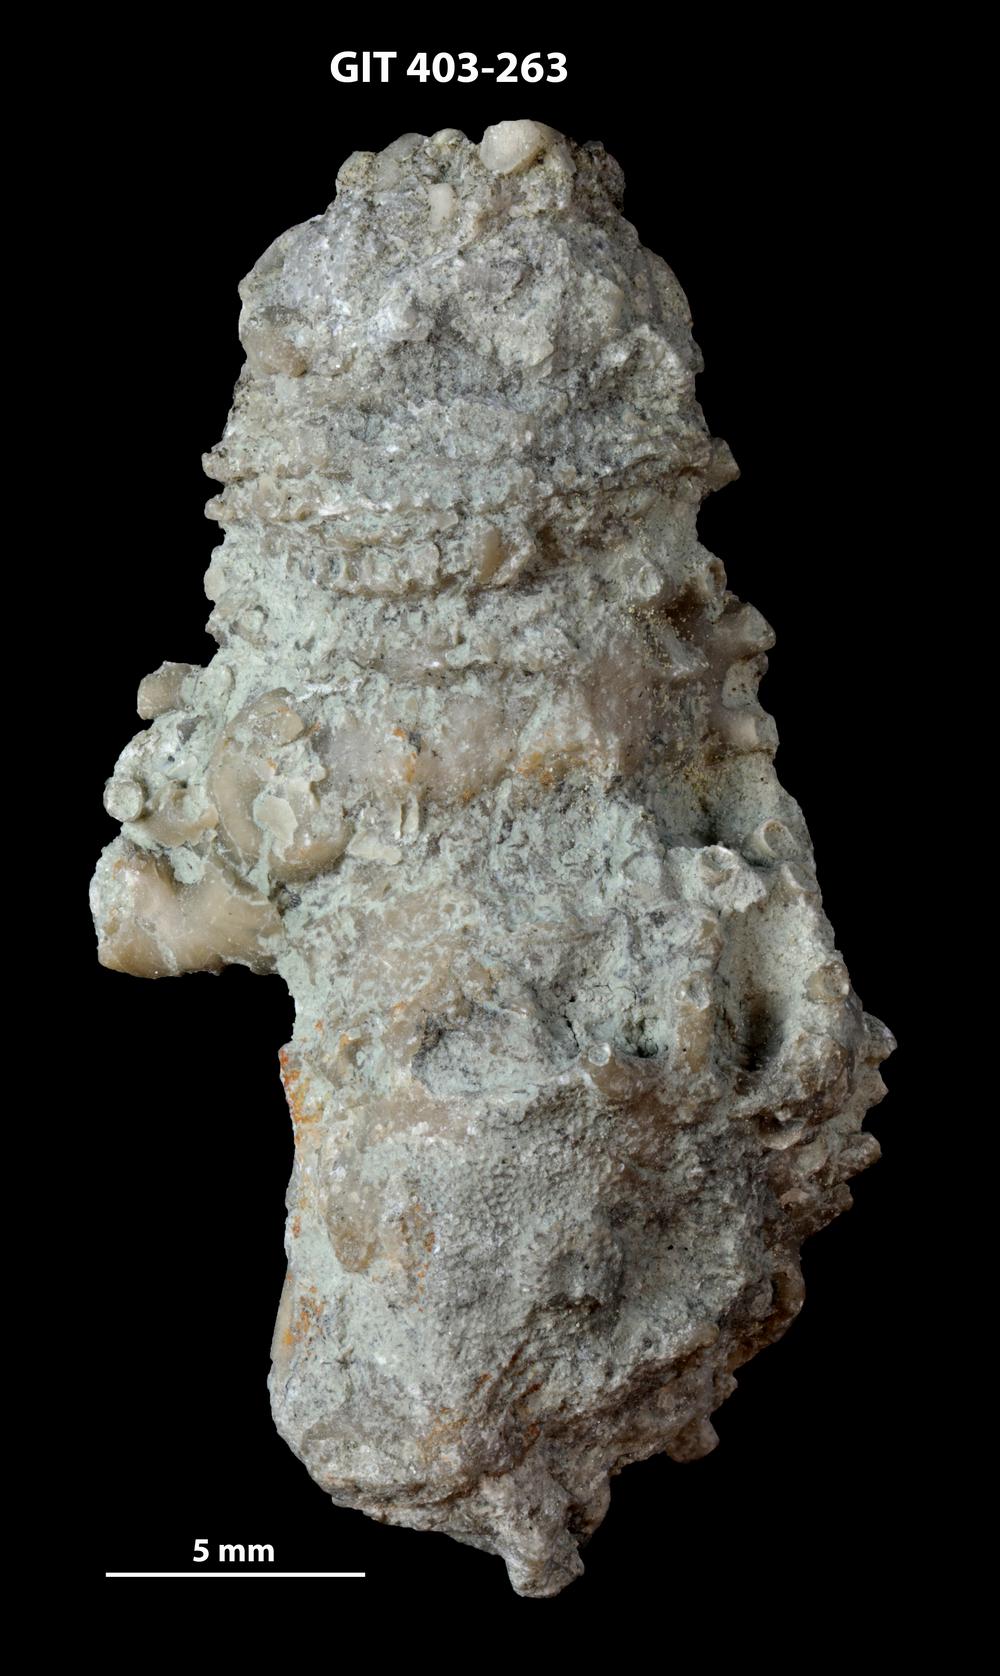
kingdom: Animalia
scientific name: Animalia
